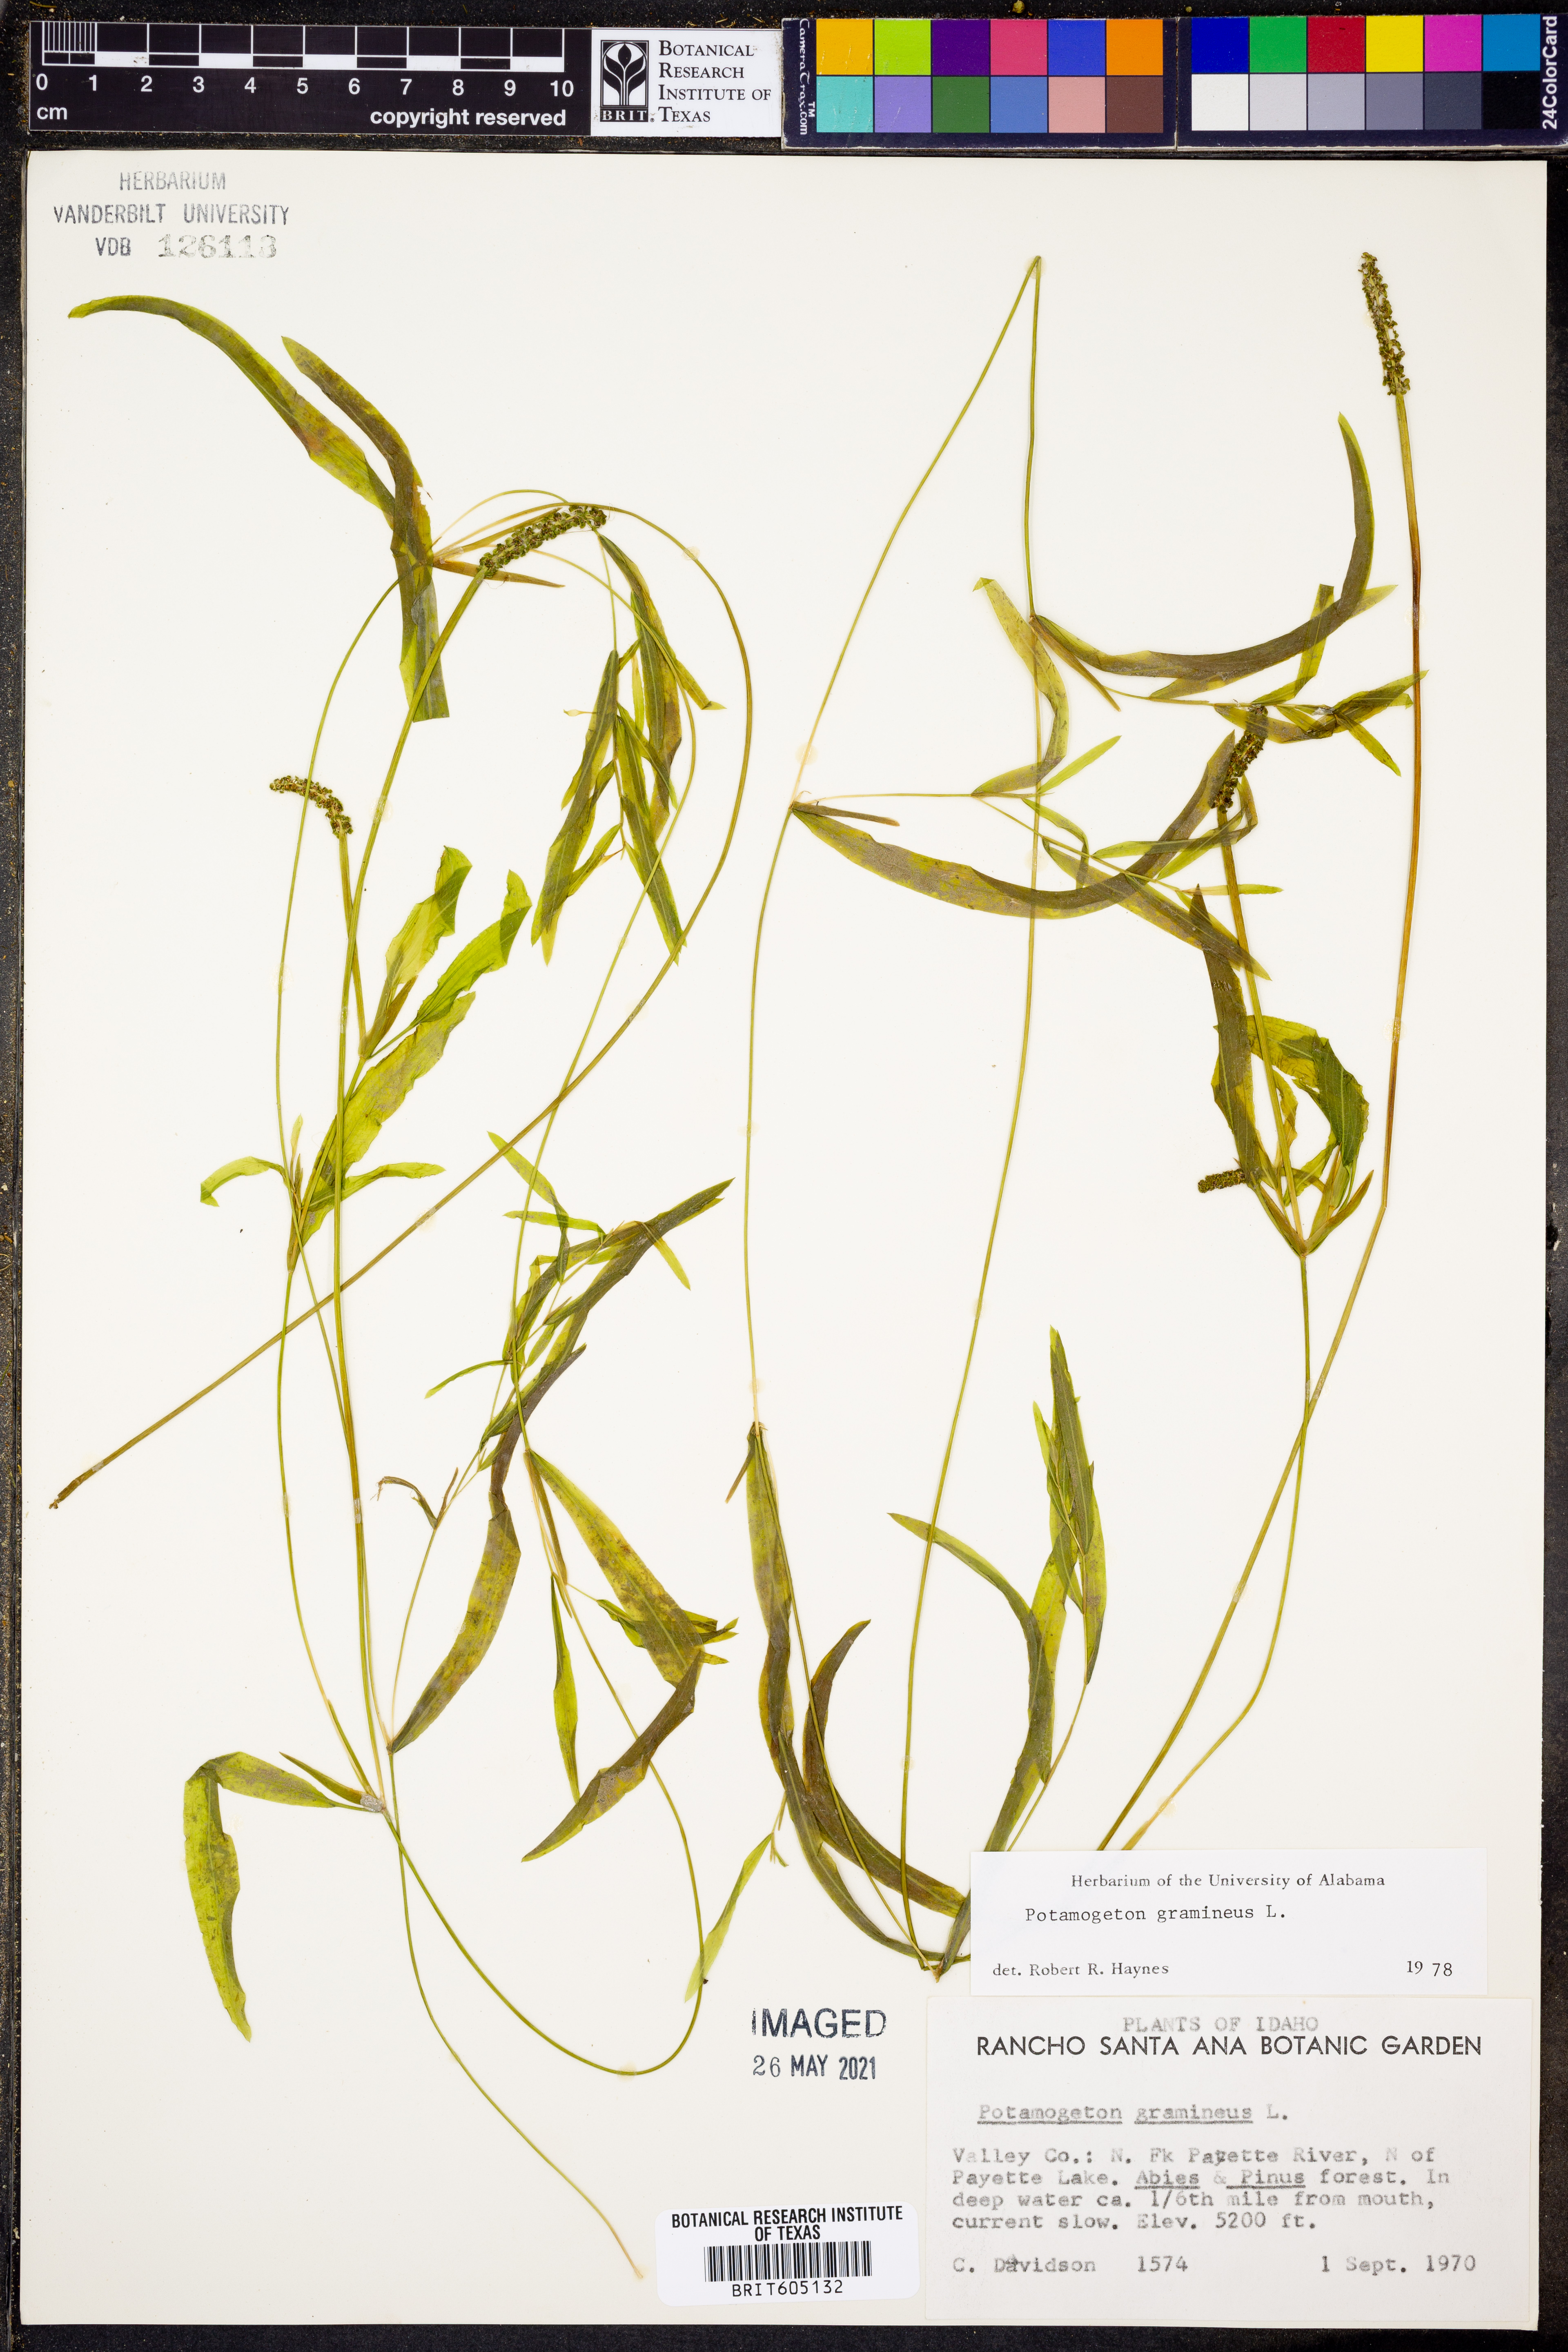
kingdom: Plantae
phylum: Tracheophyta
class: Liliopsida
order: Alismatales
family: Potamogetonaceae
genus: Potamogeton
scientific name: Potamogeton gramineus
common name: Various-leaved pondweed
